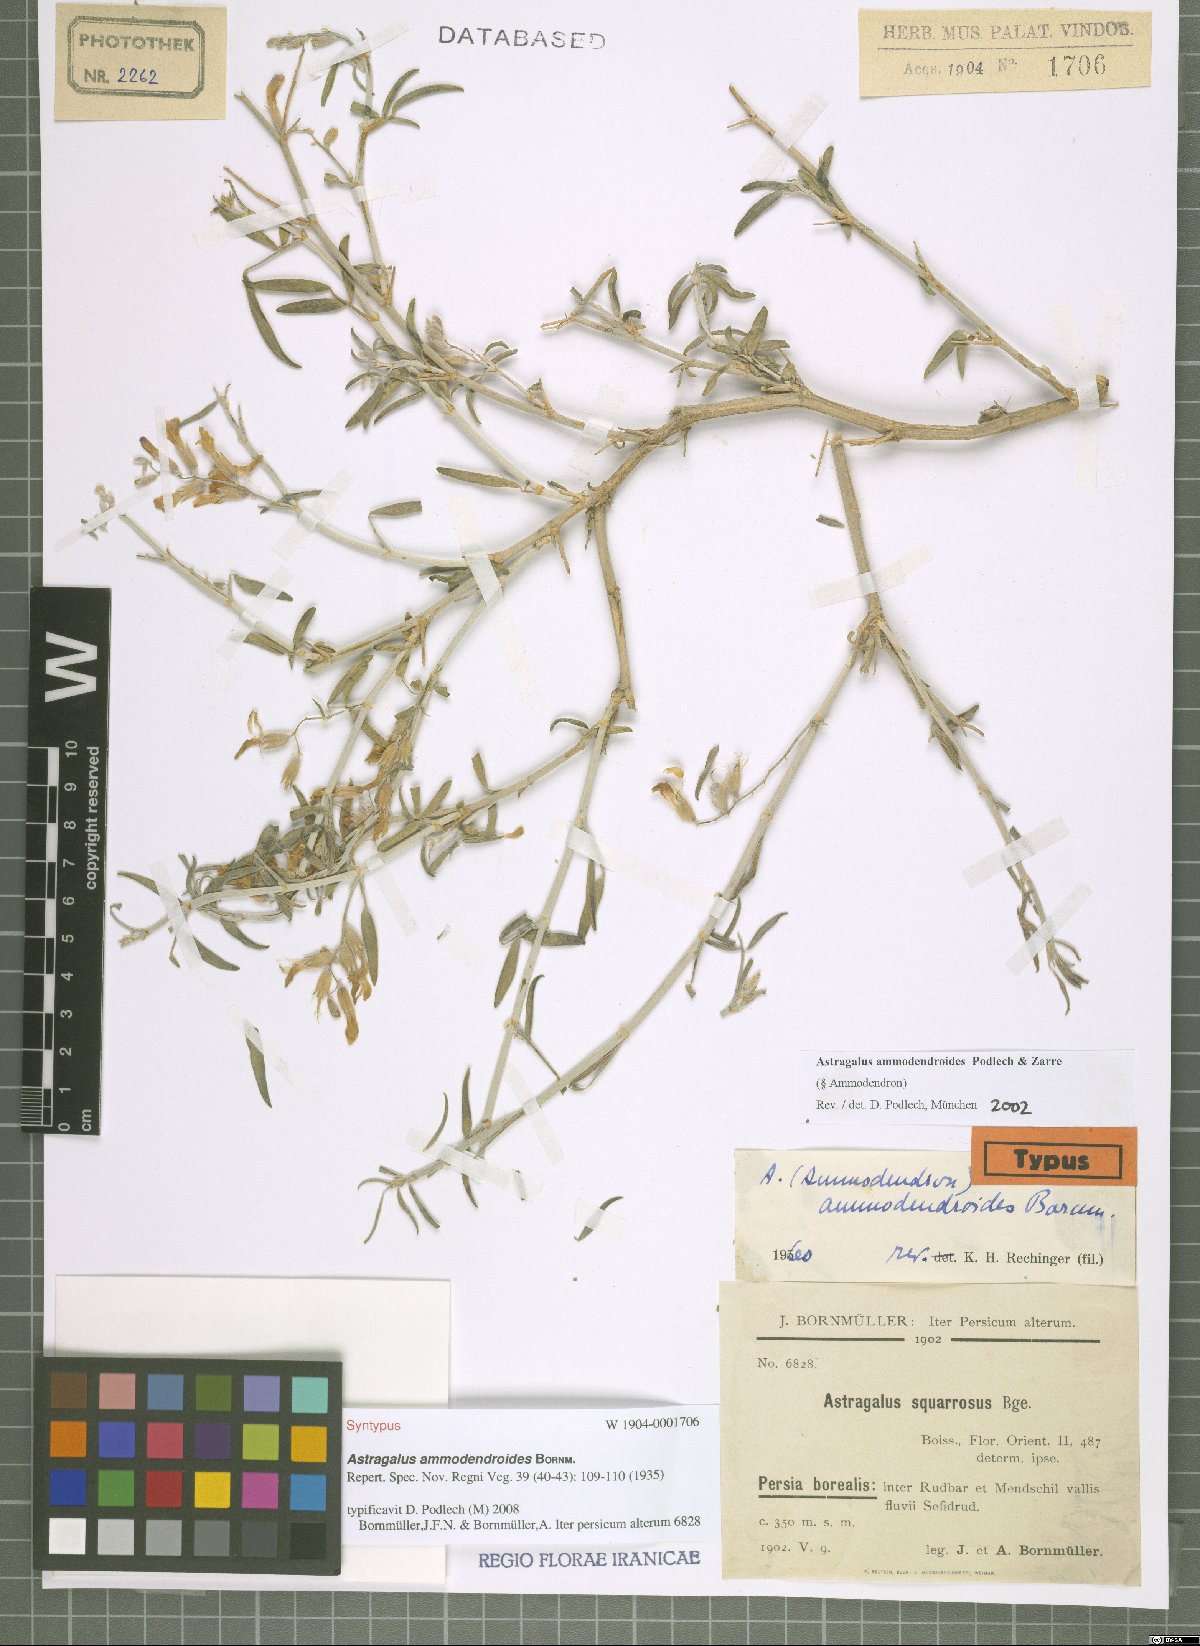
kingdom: Plantae
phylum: Tracheophyta
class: Magnoliopsida
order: Fabales
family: Fabaceae
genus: Astragalus
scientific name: Astragalus ammodendroides
